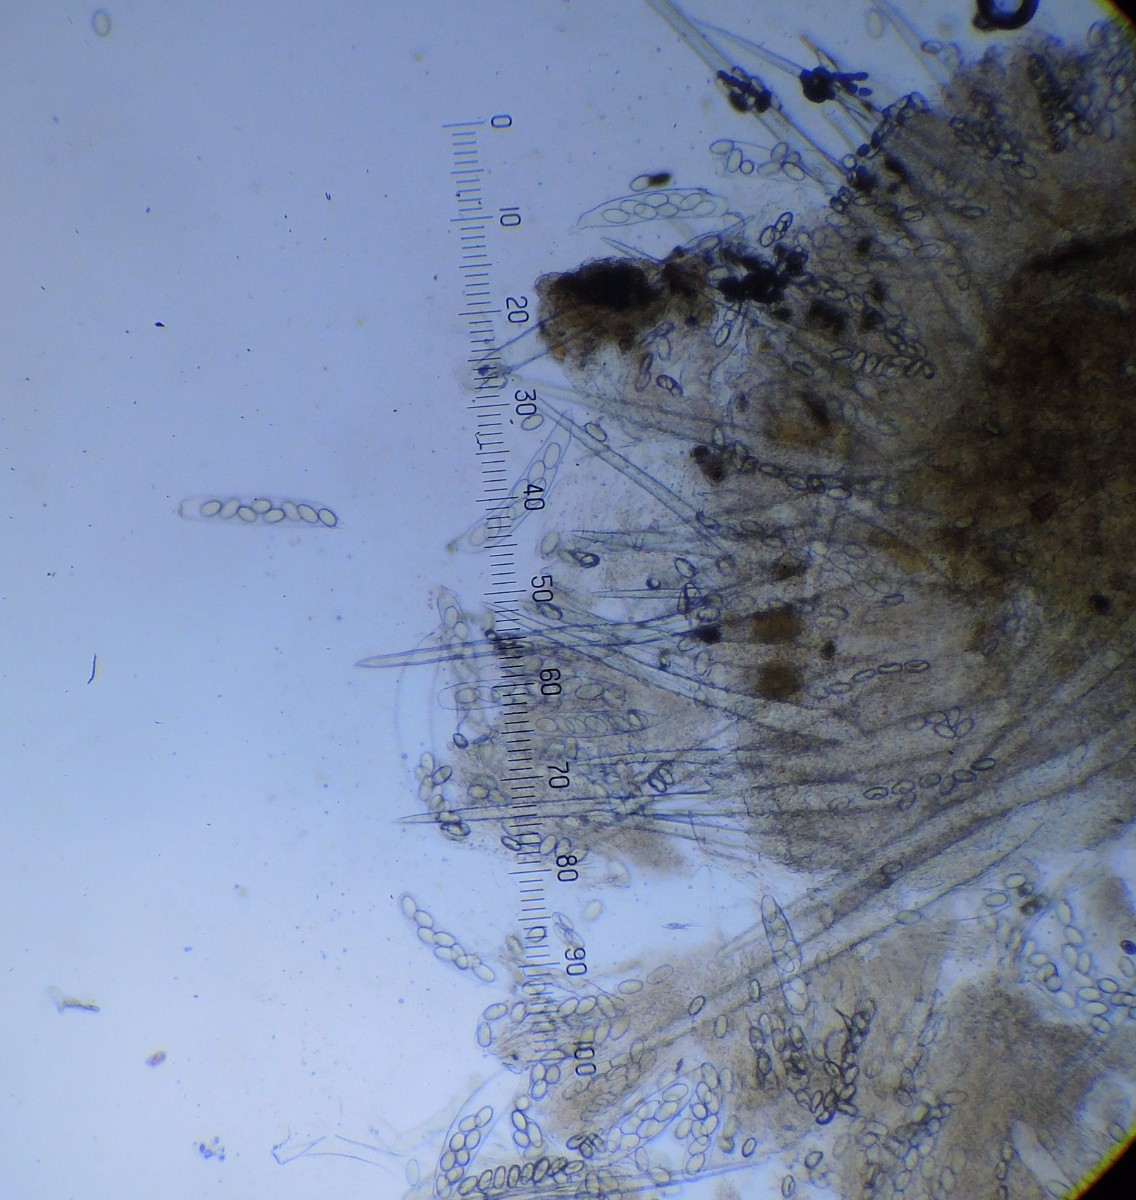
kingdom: Fungi
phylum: Ascomycota
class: Pezizomycetes
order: Pezizales
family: Ascodesmidaceae
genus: Lasiobolus
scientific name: Lasiobolus papillatus
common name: enradet øjebæger
